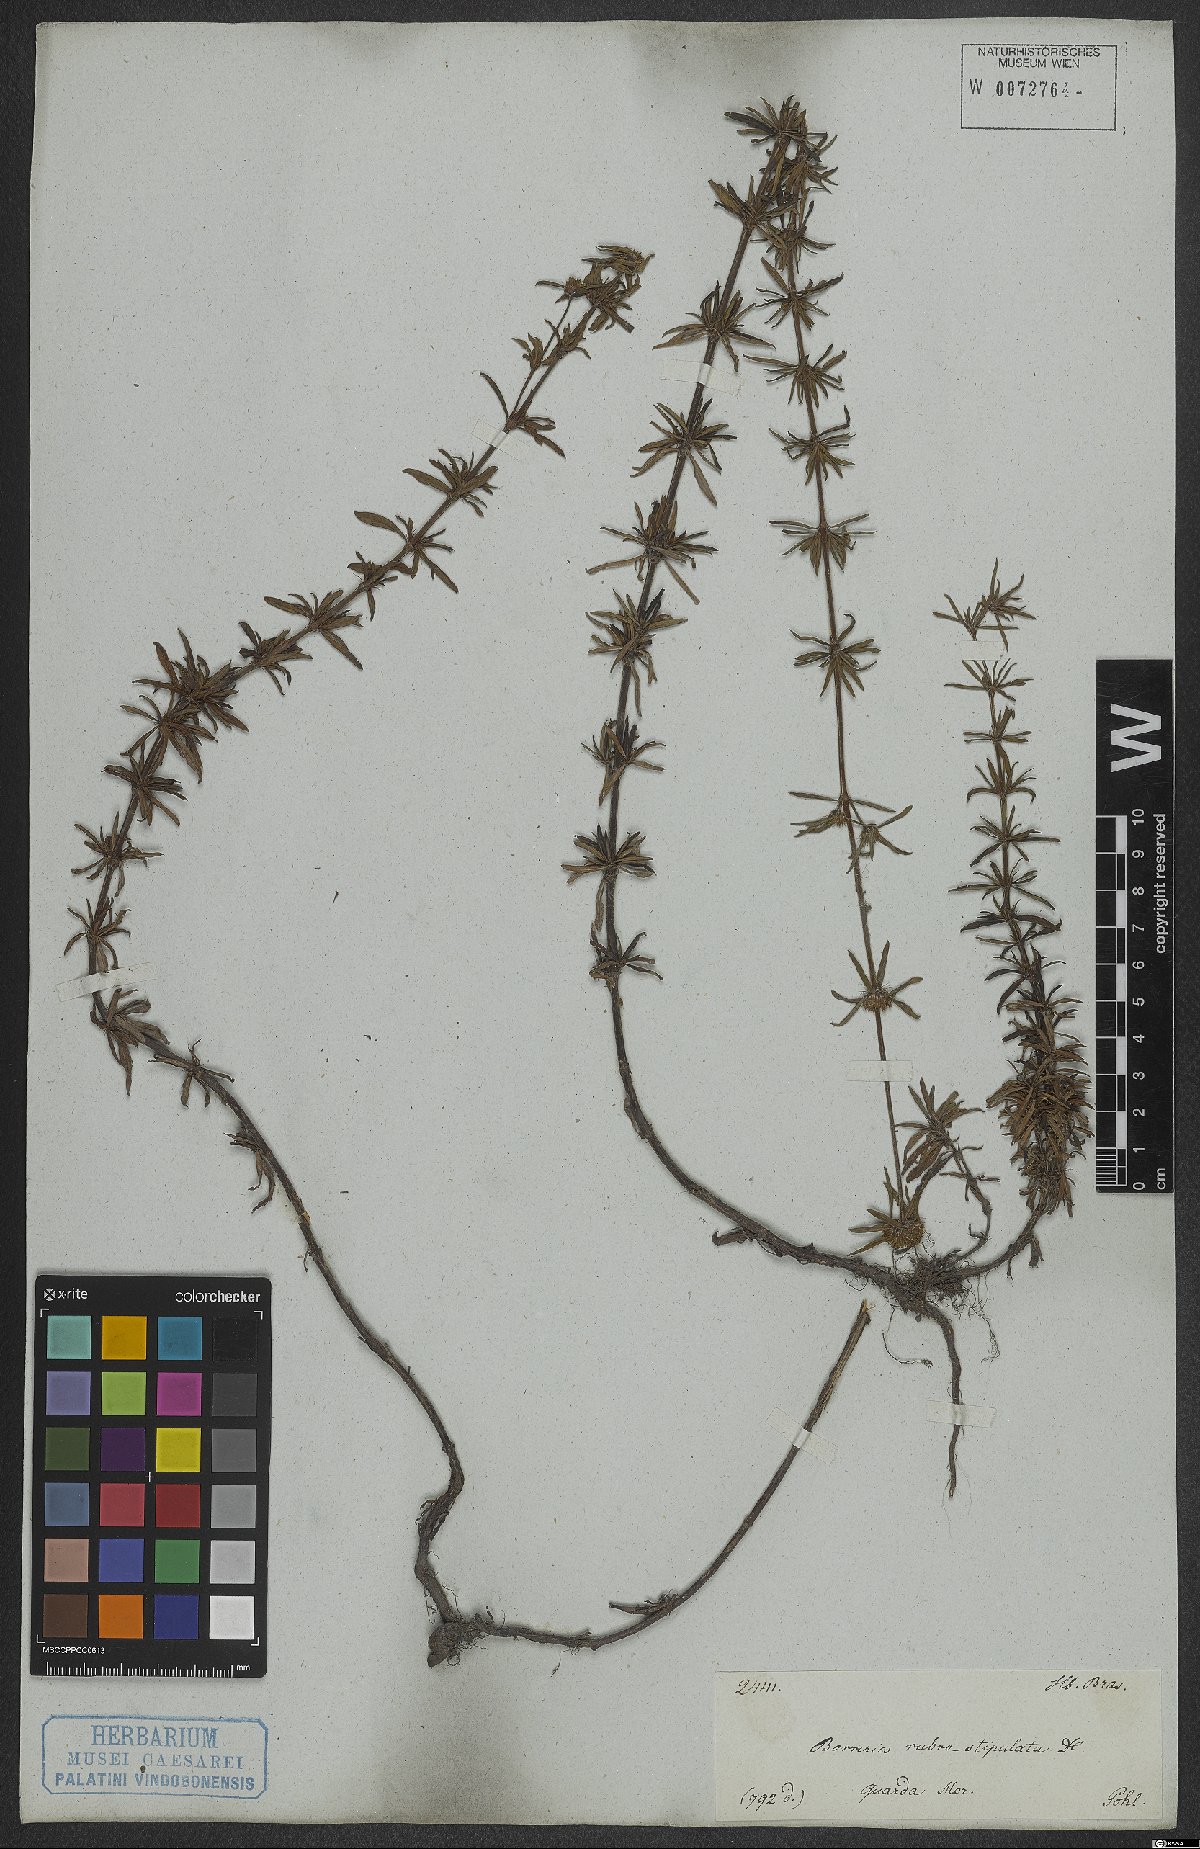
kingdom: Plantae
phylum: Tracheophyta
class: Magnoliopsida
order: Gentianales
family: Rubiaceae
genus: Spermacoce
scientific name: Spermacoce orinocensis
